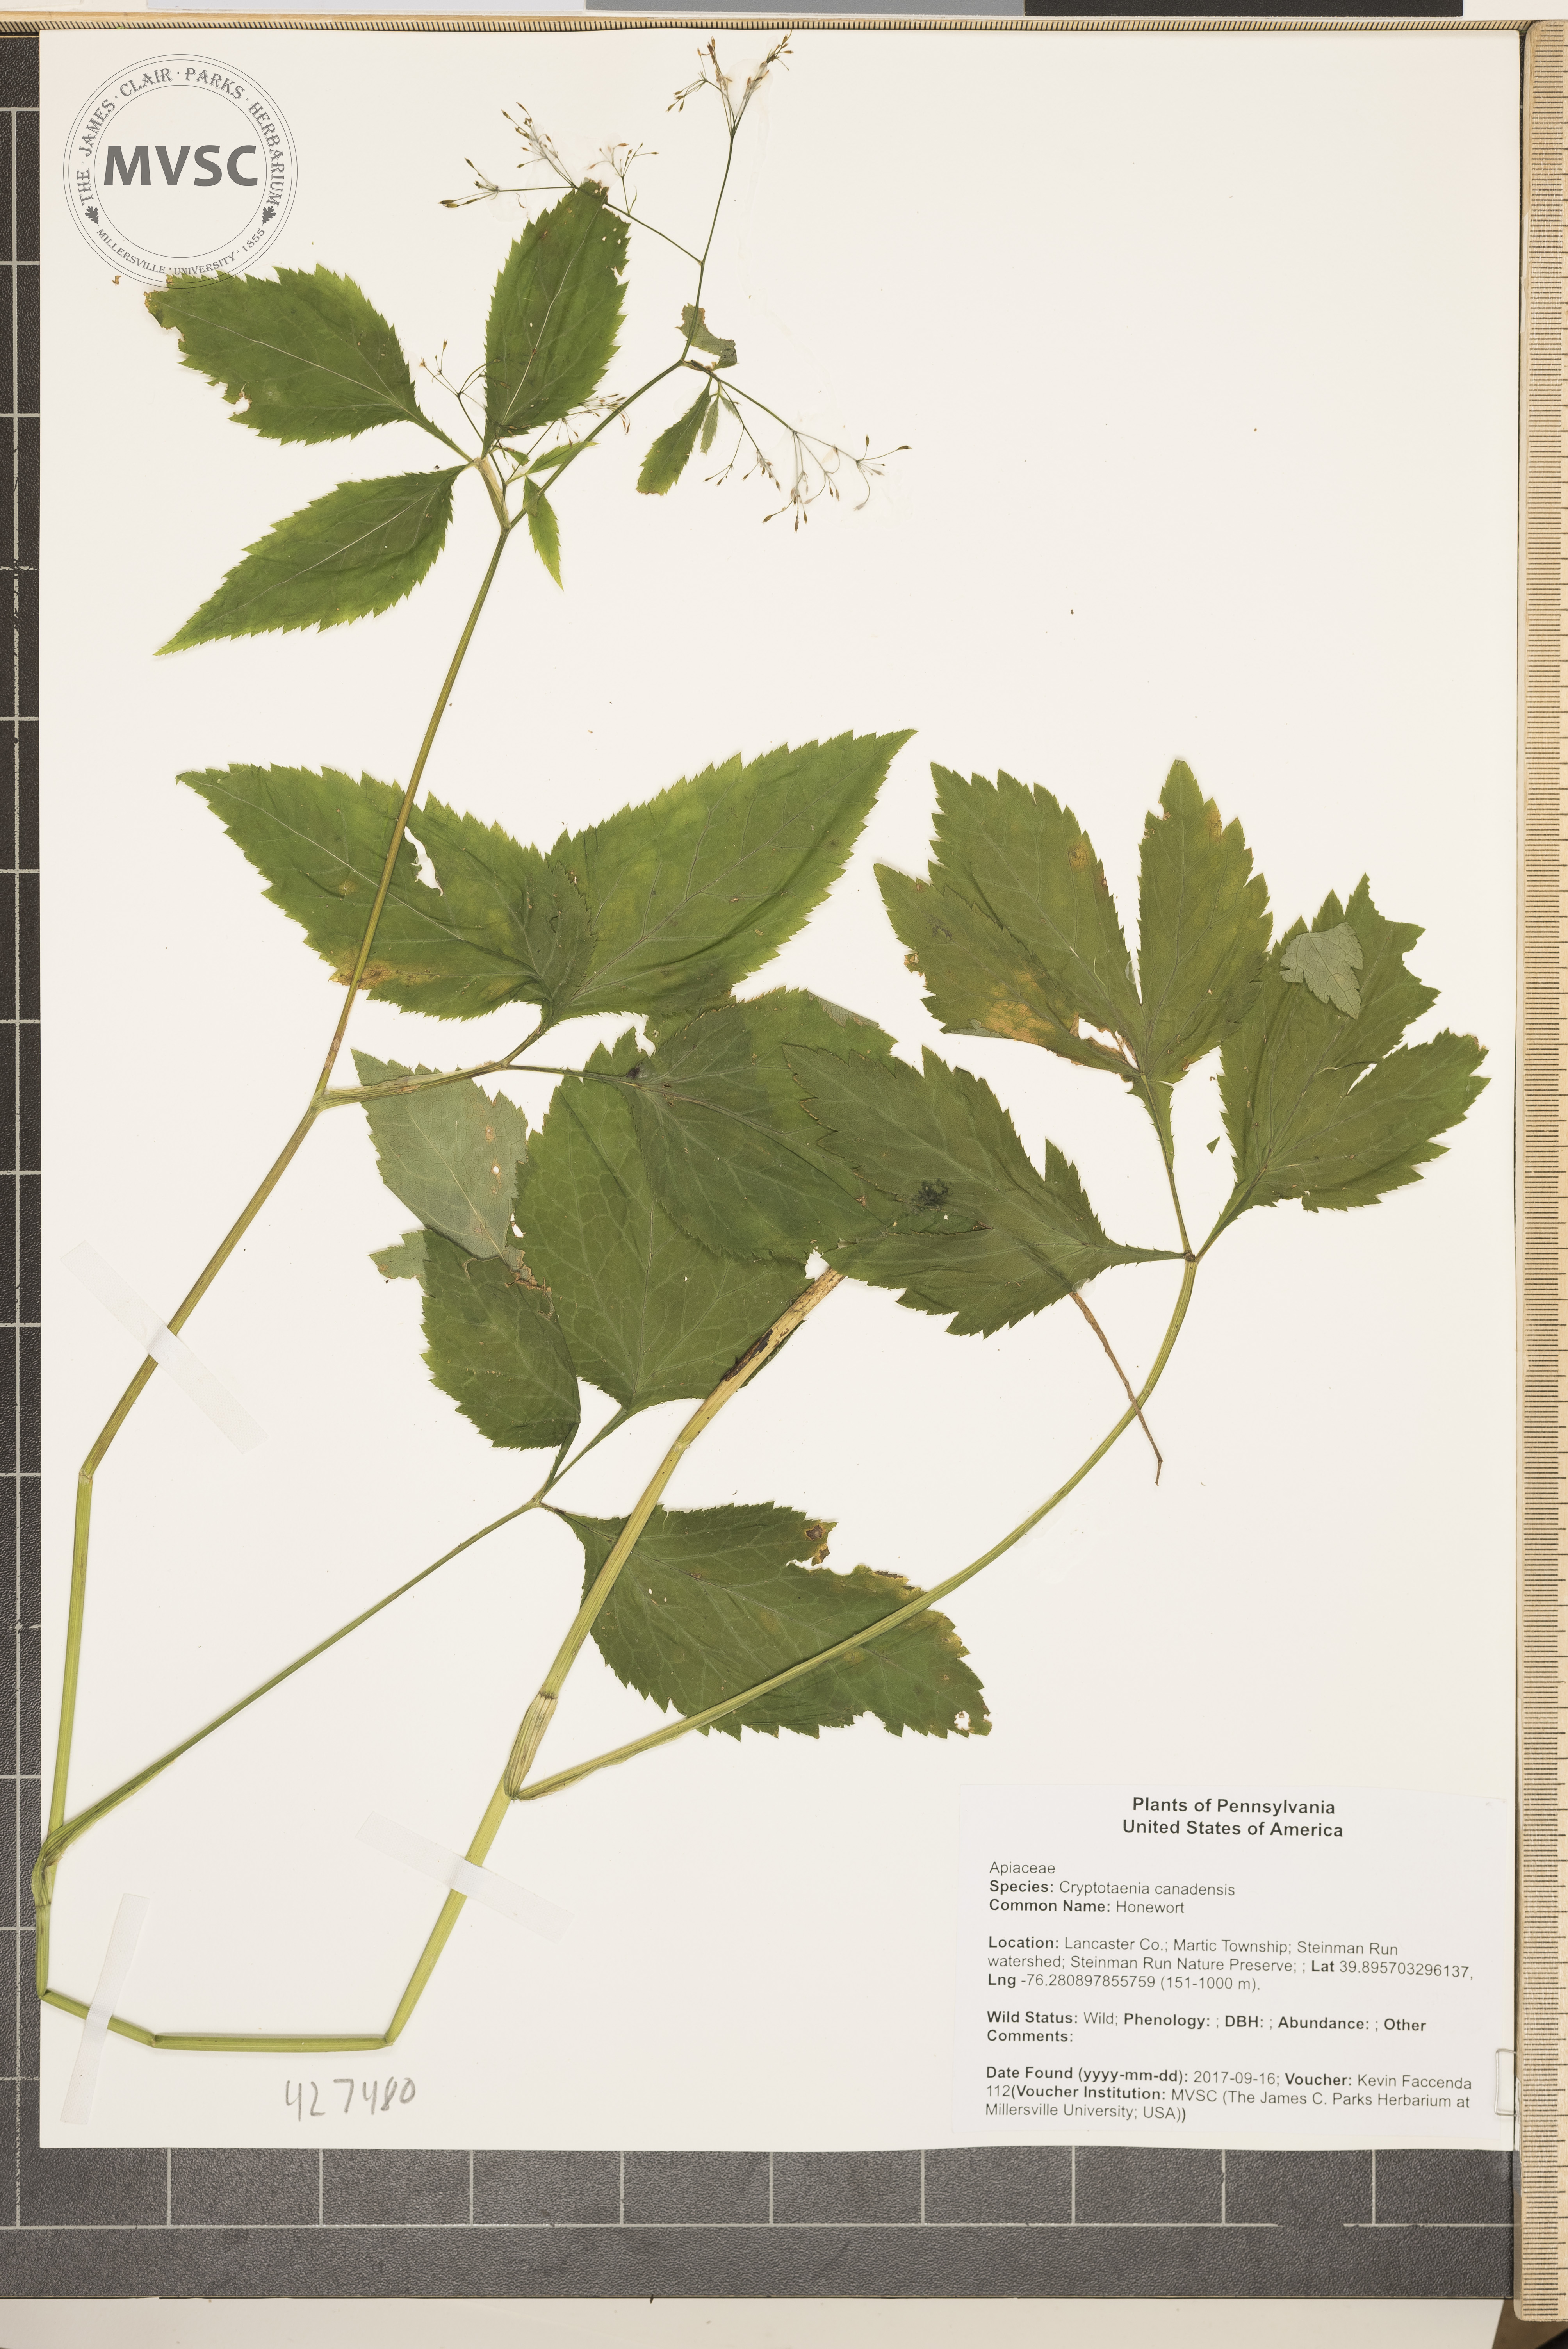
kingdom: Plantae
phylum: Tracheophyta
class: Magnoliopsida
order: Apiales
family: Apiaceae
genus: Cryptotaenia
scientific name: Cryptotaenia canadensis
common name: Honewort
